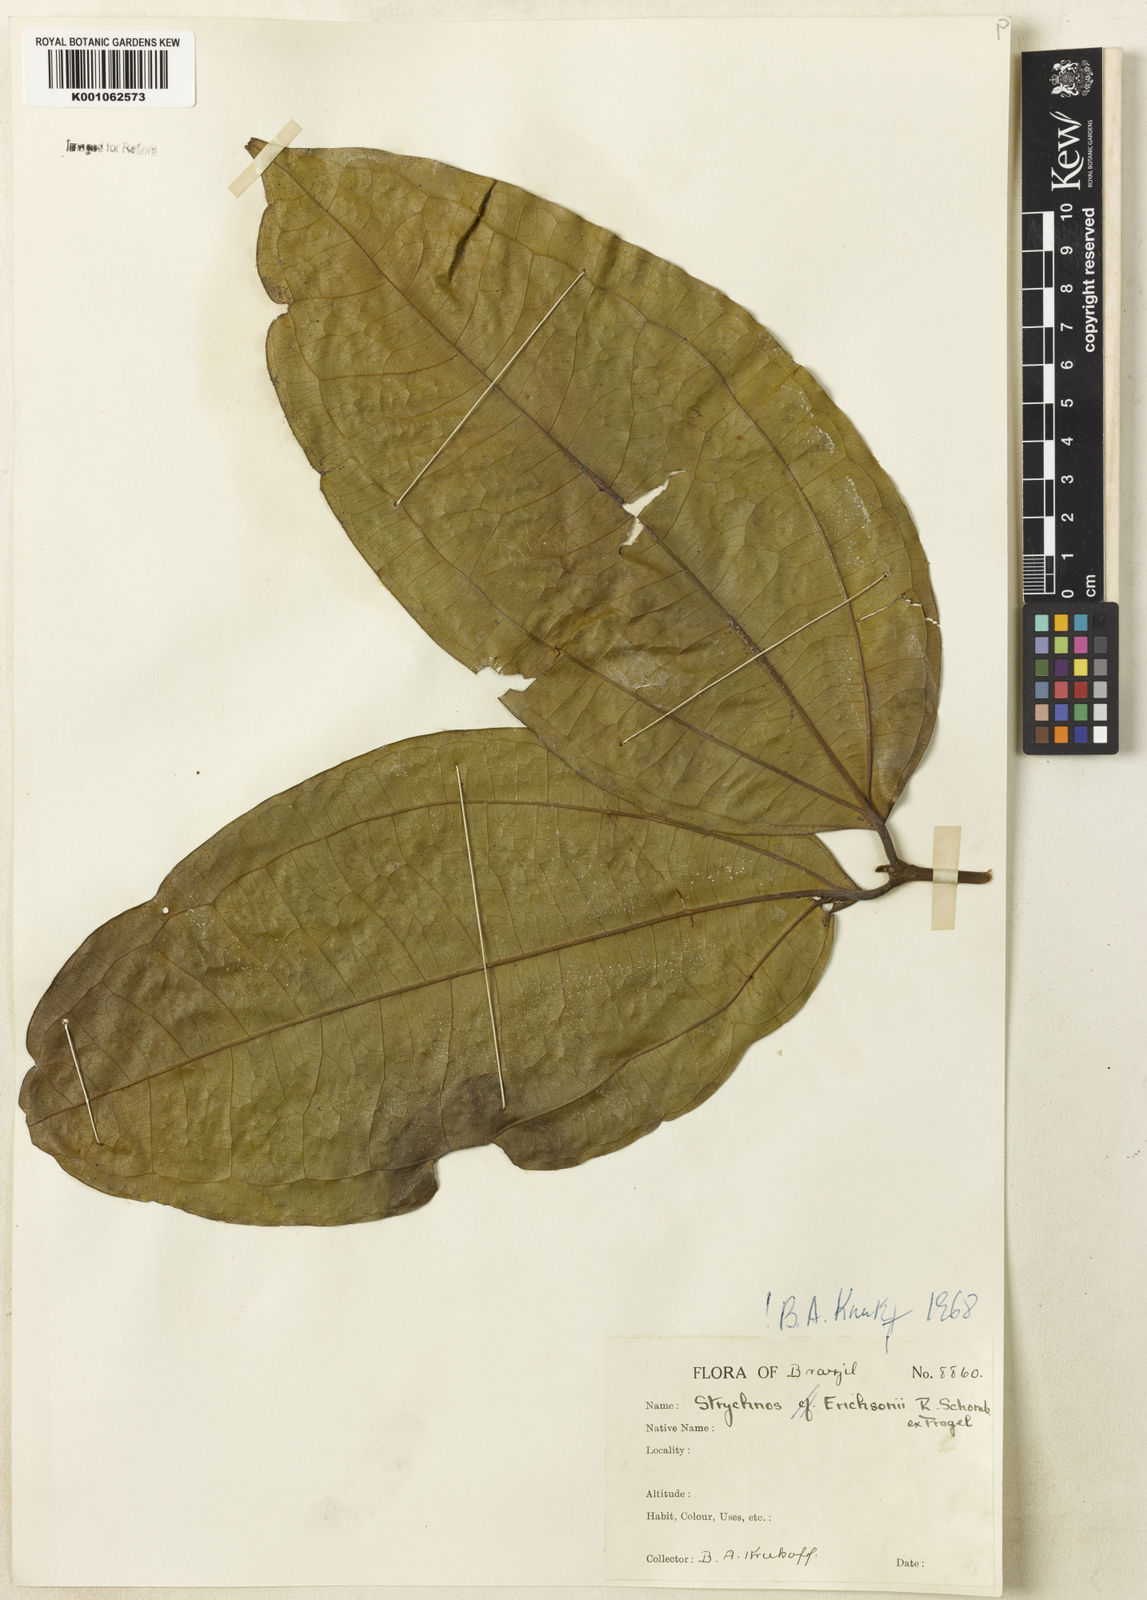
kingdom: Plantae
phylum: Tracheophyta
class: Magnoliopsida
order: Gentianales
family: Loganiaceae
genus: Strychnos
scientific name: Strychnos erichsonii
